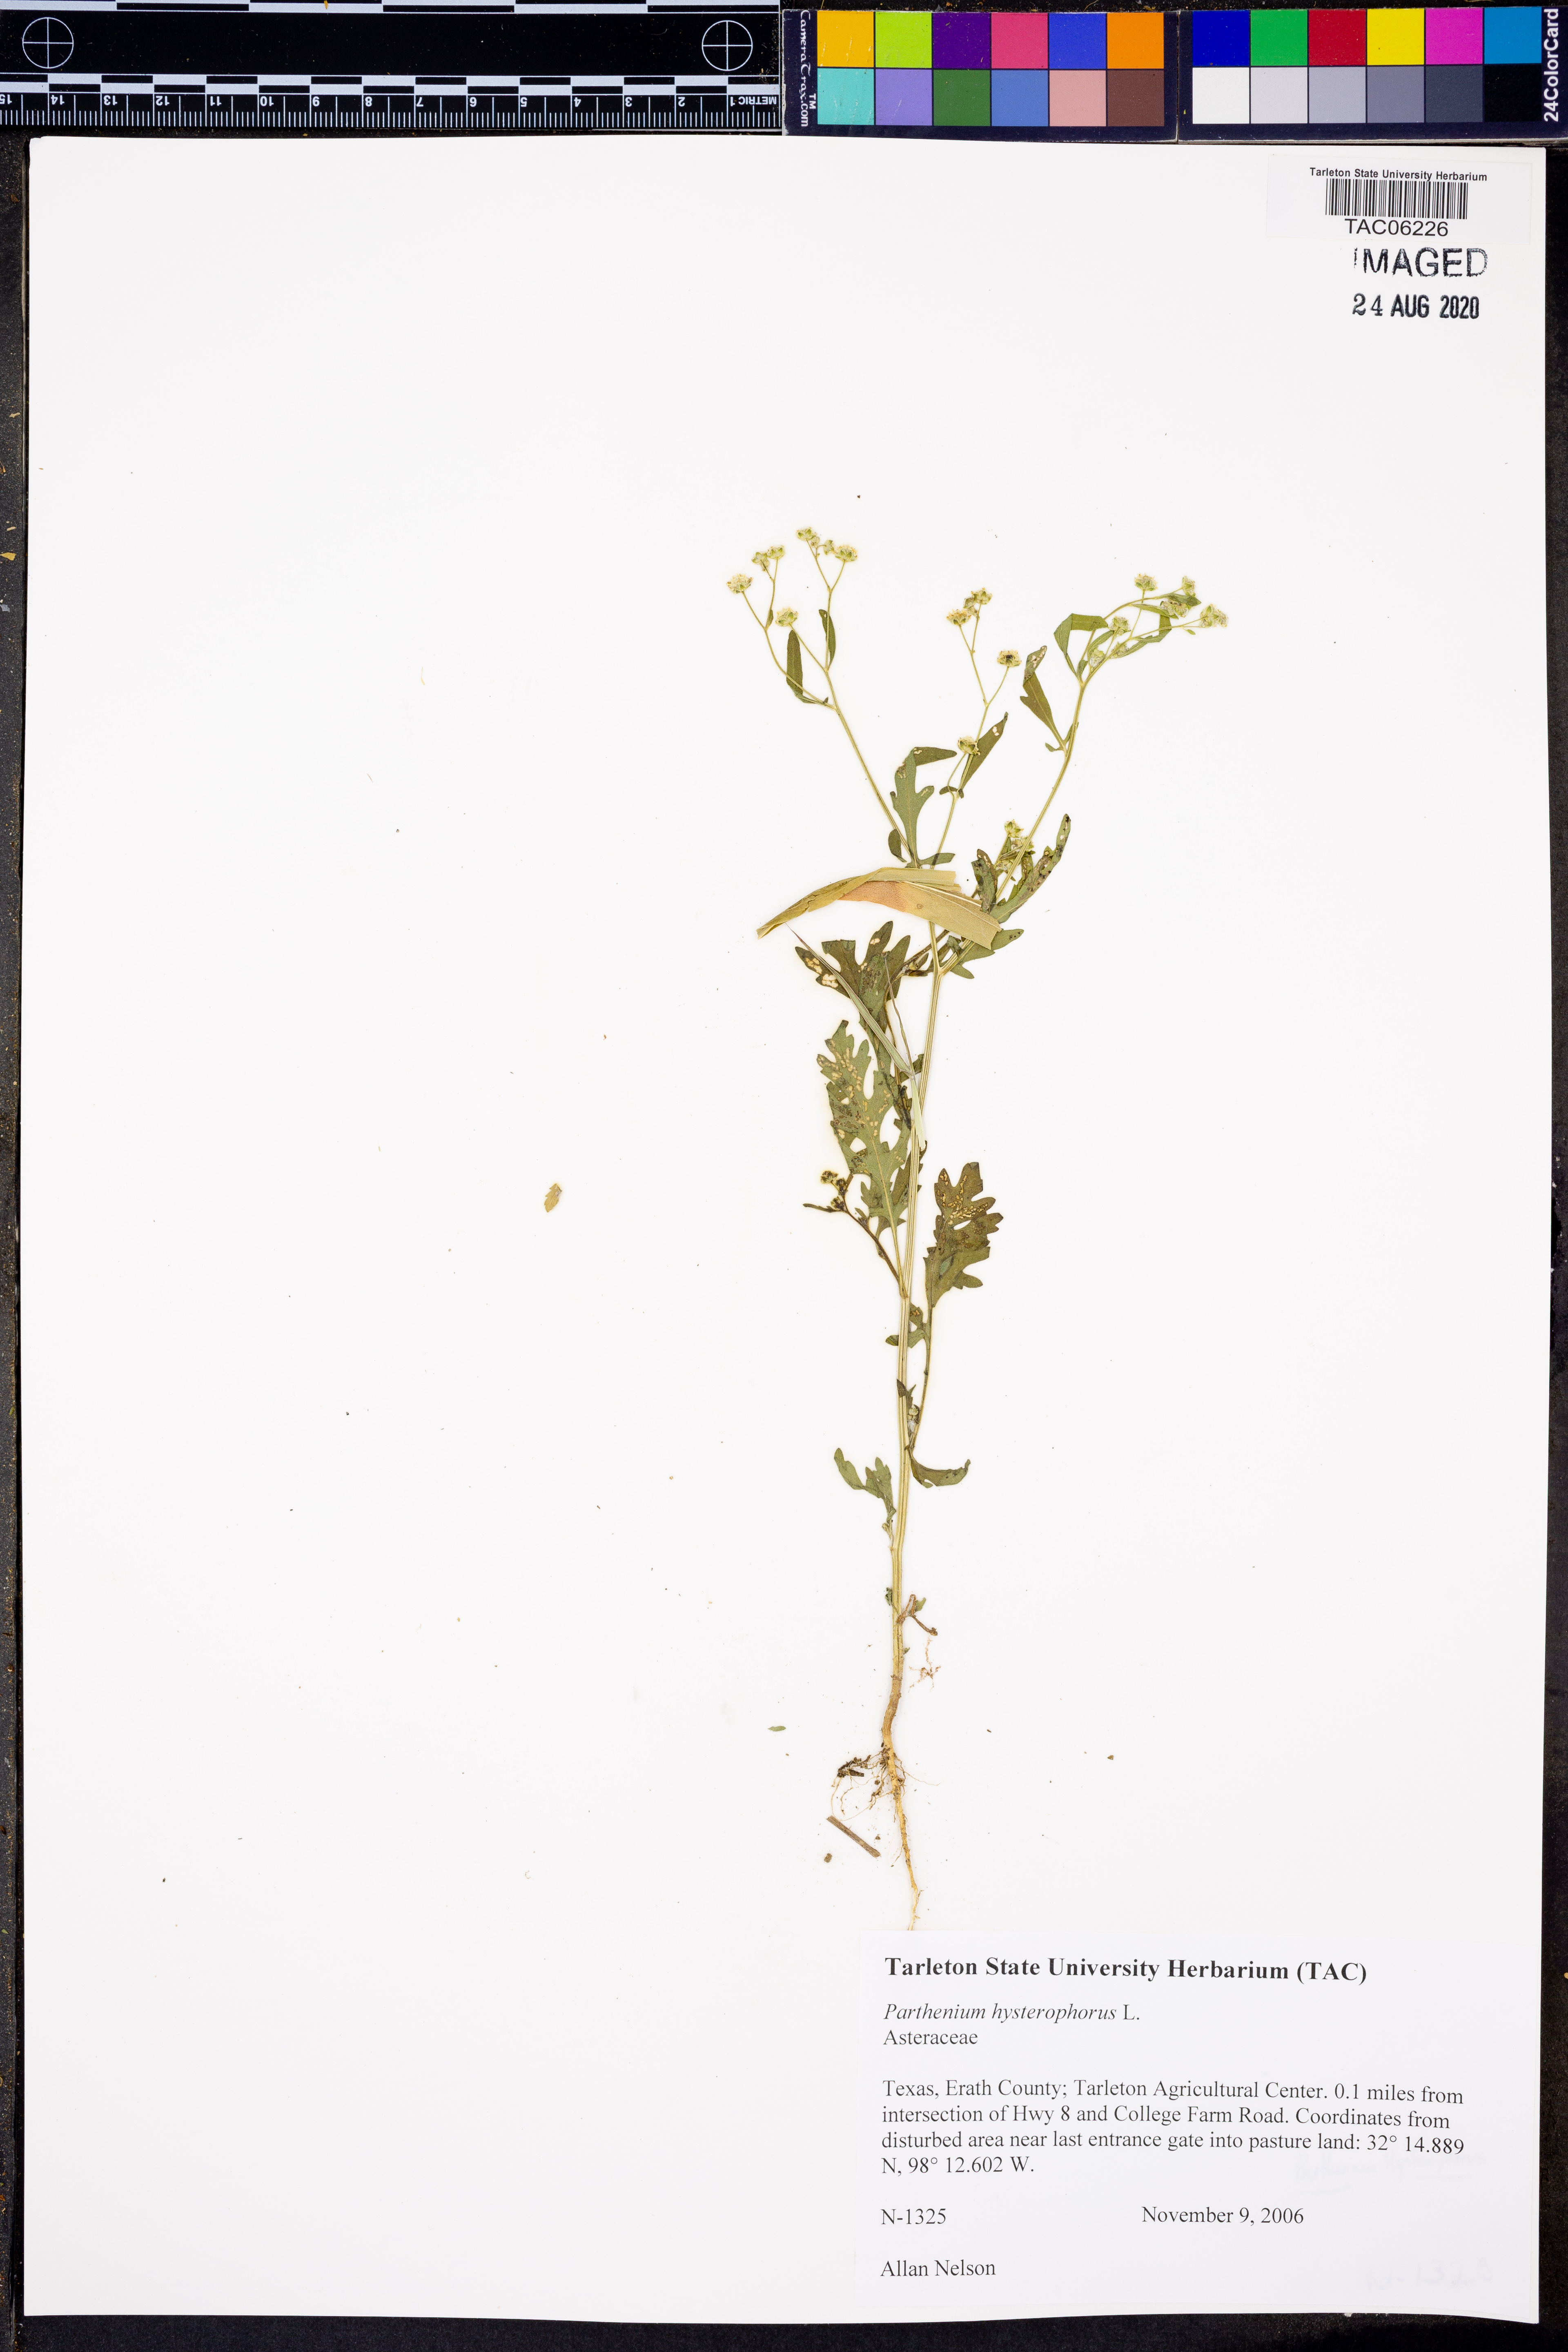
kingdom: Plantae
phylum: Tracheophyta
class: Magnoliopsida
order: Asterales
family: Asteraceae
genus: Parthenium
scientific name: Parthenium hysterophorus
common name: Santa maria feverfew
